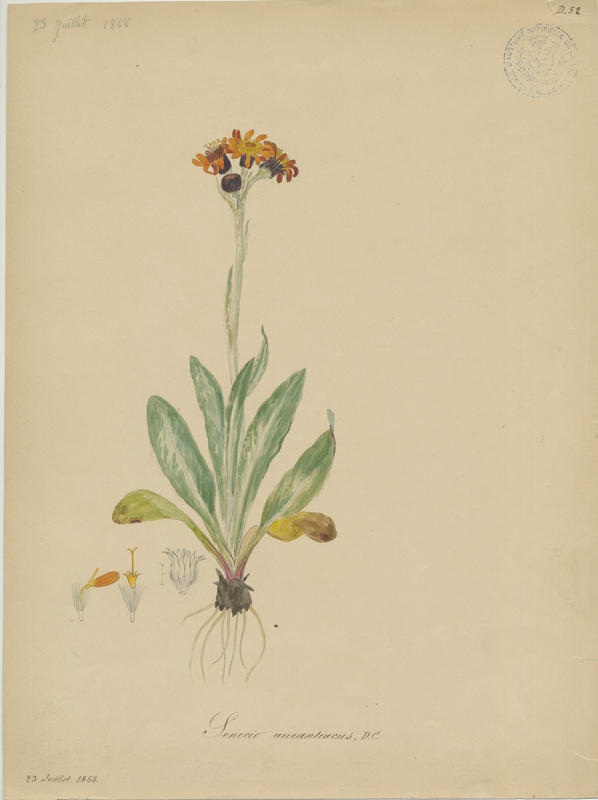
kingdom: Plantae
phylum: Tracheophyta
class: Magnoliopsida
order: Asterales
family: Asteraceae
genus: Tephroseris
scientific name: Tephroseris integrifolia
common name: Field fleawort
